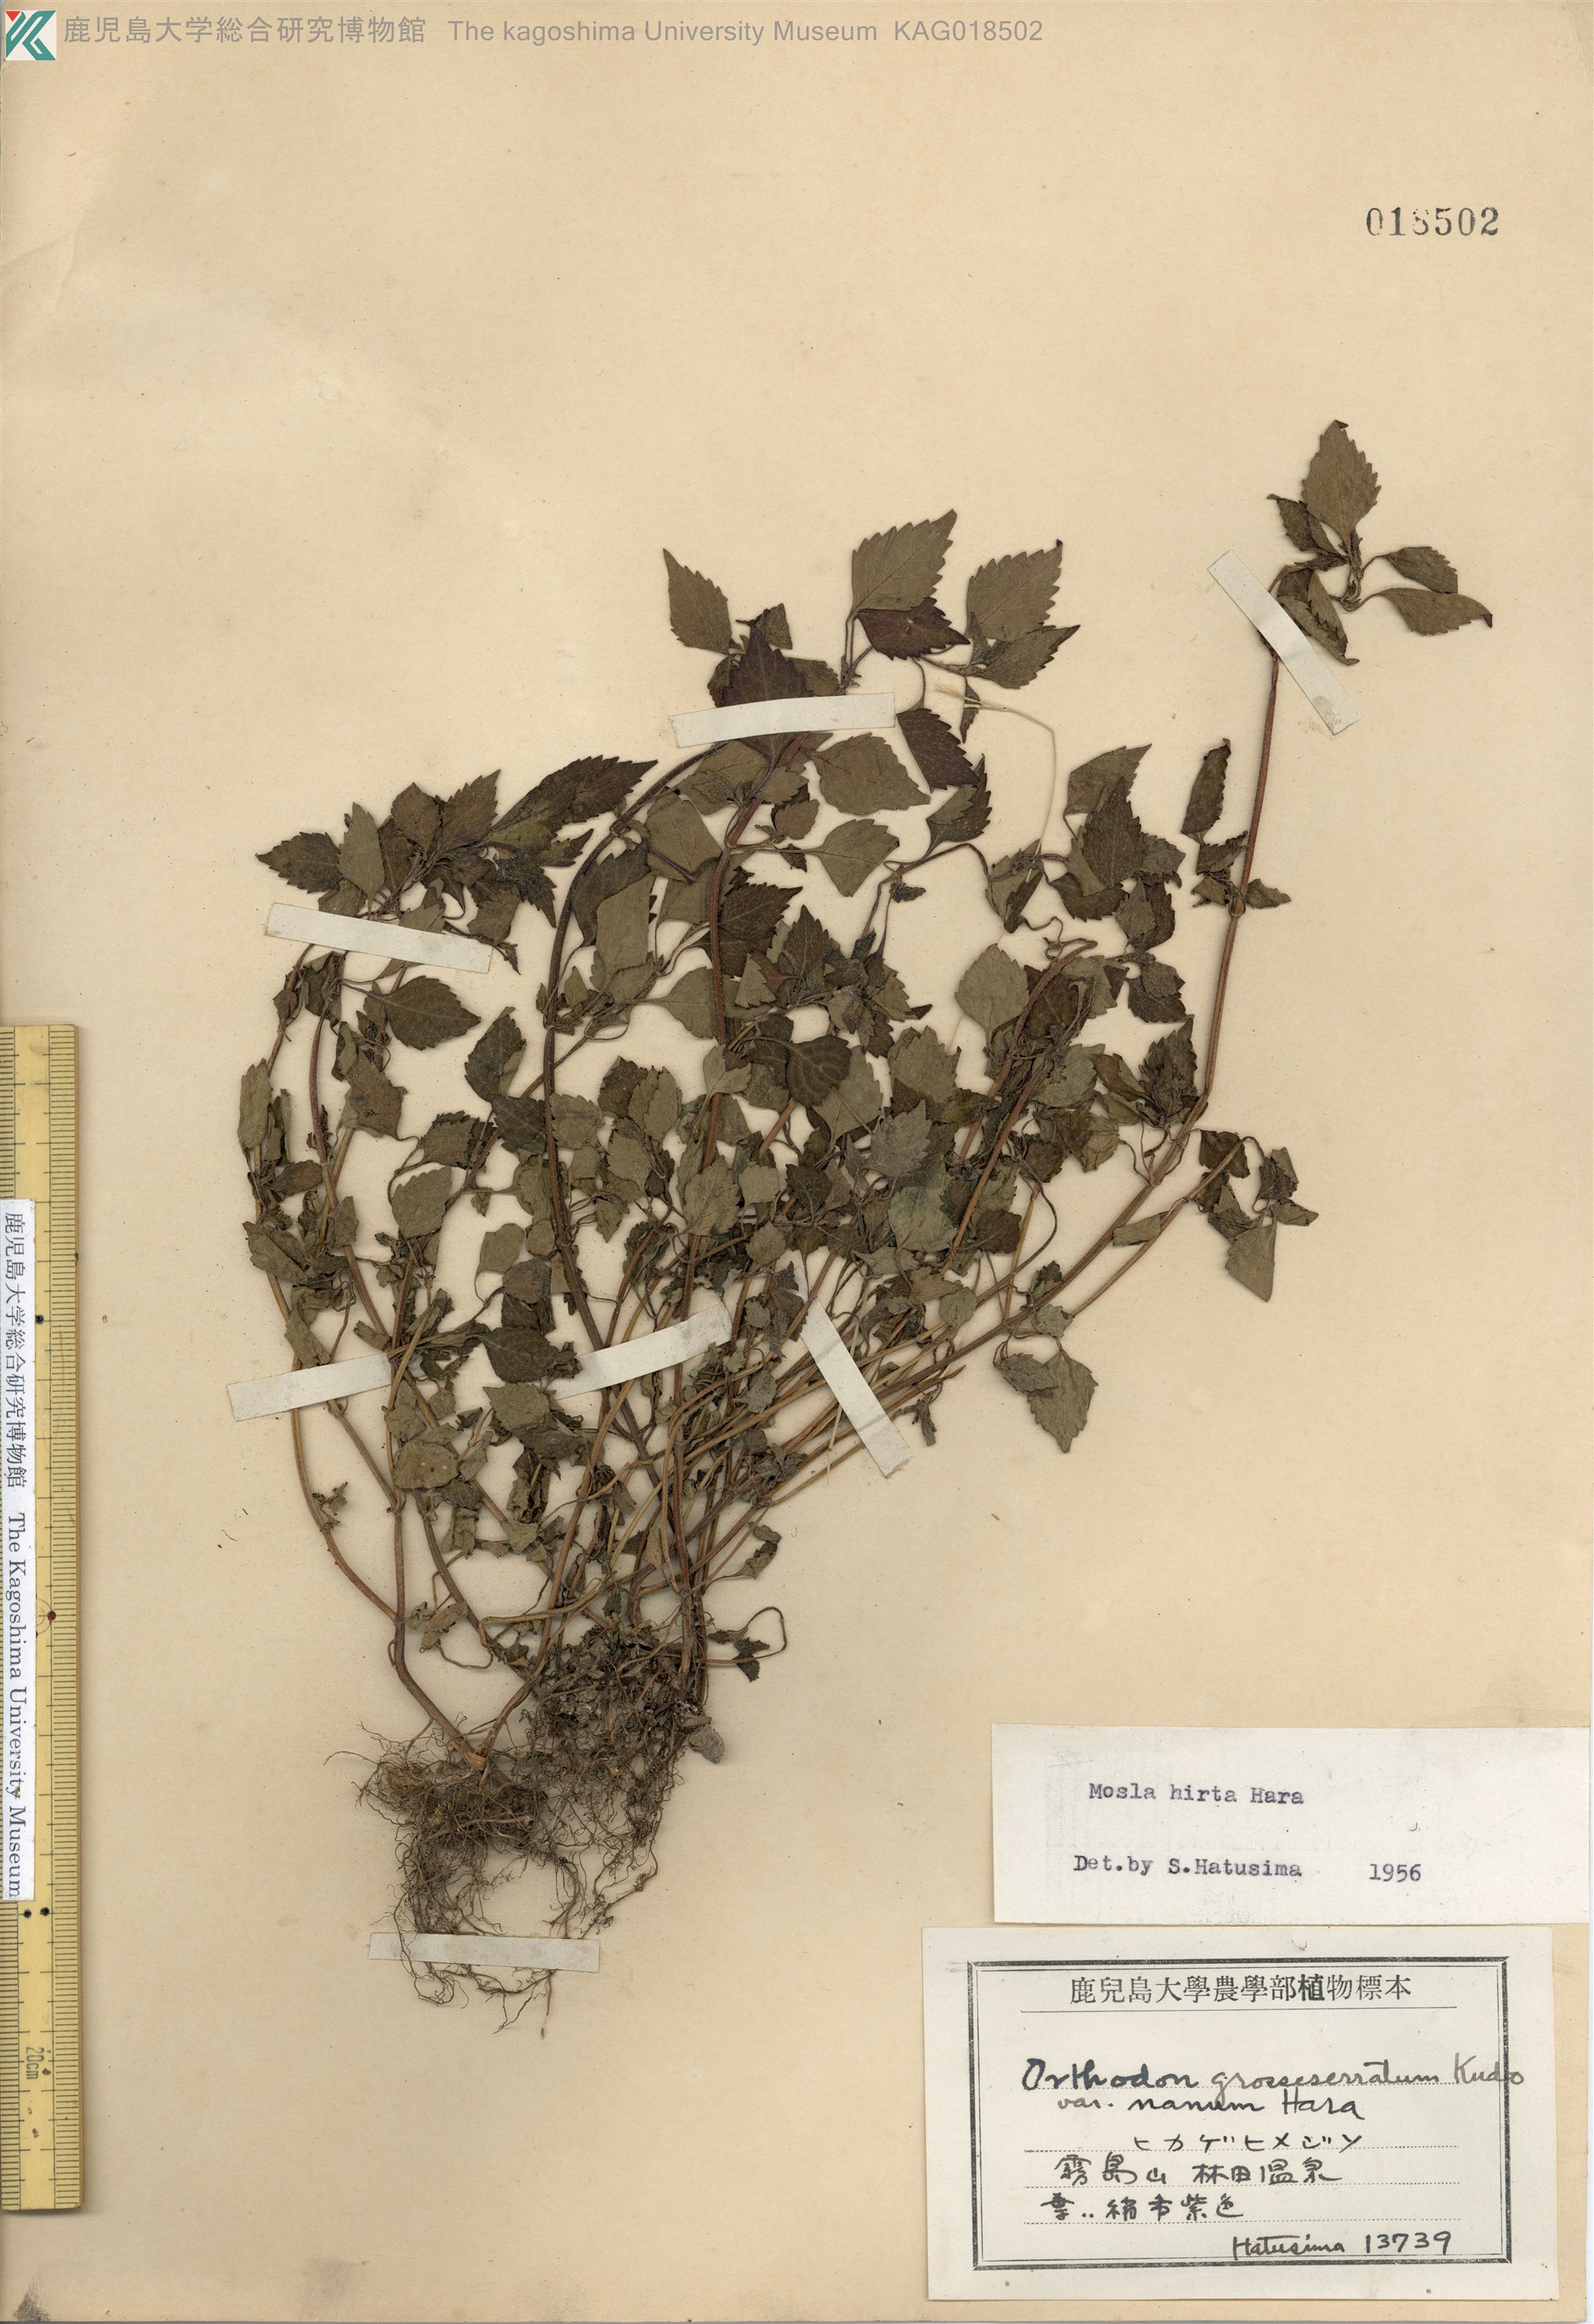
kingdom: Plantae
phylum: Tracheophyta
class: Magnoliopsida
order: Lamiales
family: Lamiaceae
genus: Mosla
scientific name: Mosla dianthera
